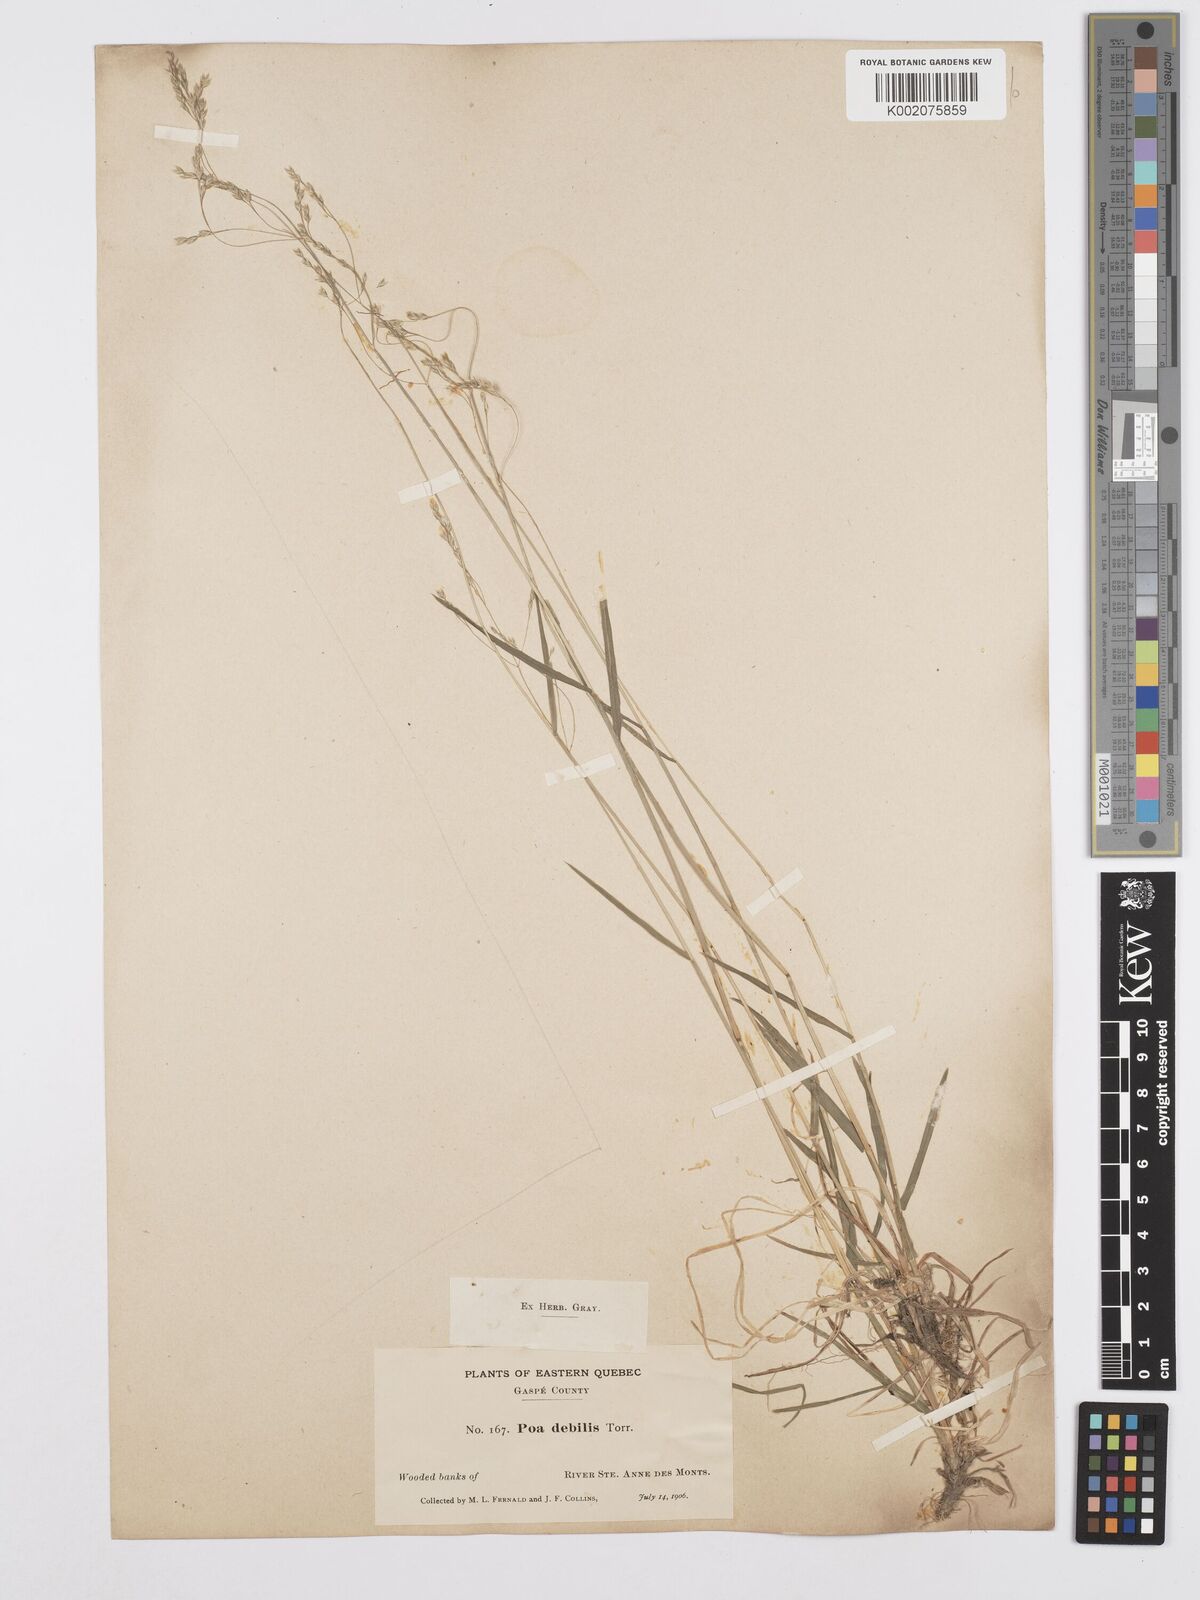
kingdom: Plantae
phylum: Tracheophyta
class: Liliopsida
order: Poales
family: Poaceae
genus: Poa
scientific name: Poa saltuensis
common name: Bushy pasture speargrass
